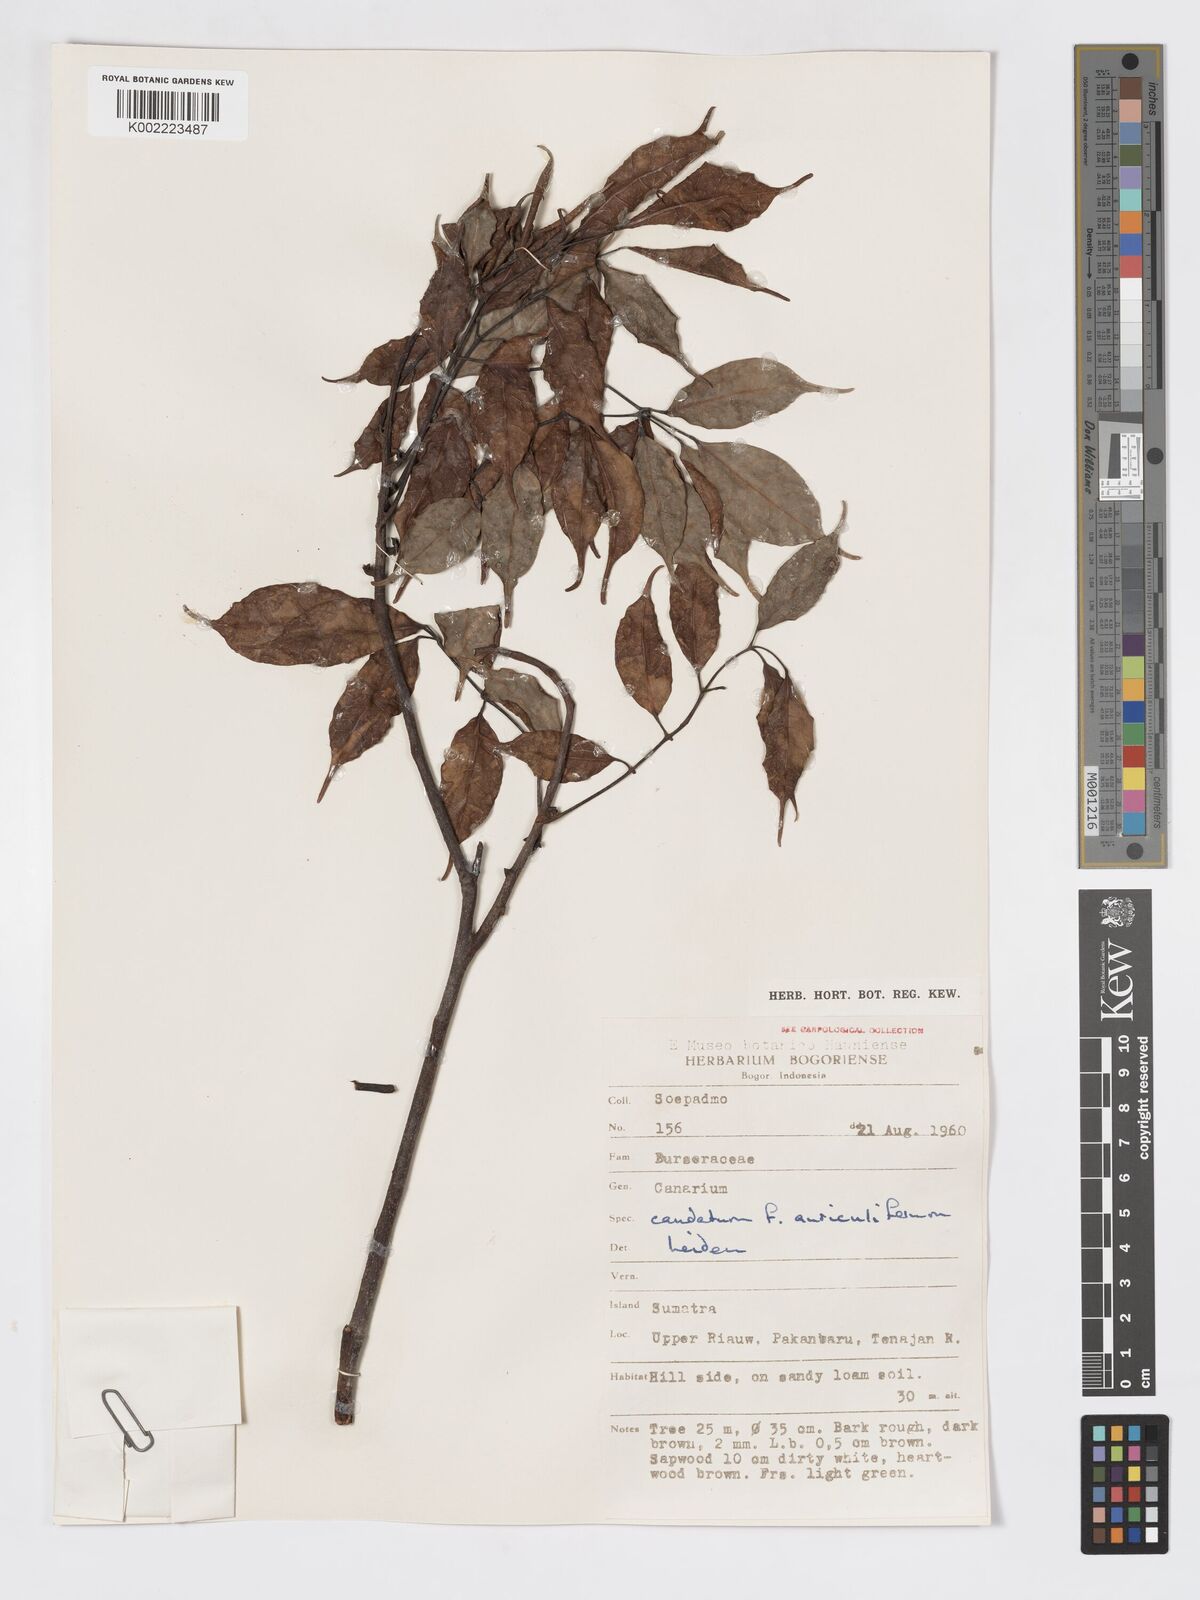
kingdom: Plantae
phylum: Tracheophyta
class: Magnoliopsida
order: Sapindales
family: Burseraceae
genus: Canarium
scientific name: Canarium caudatum
